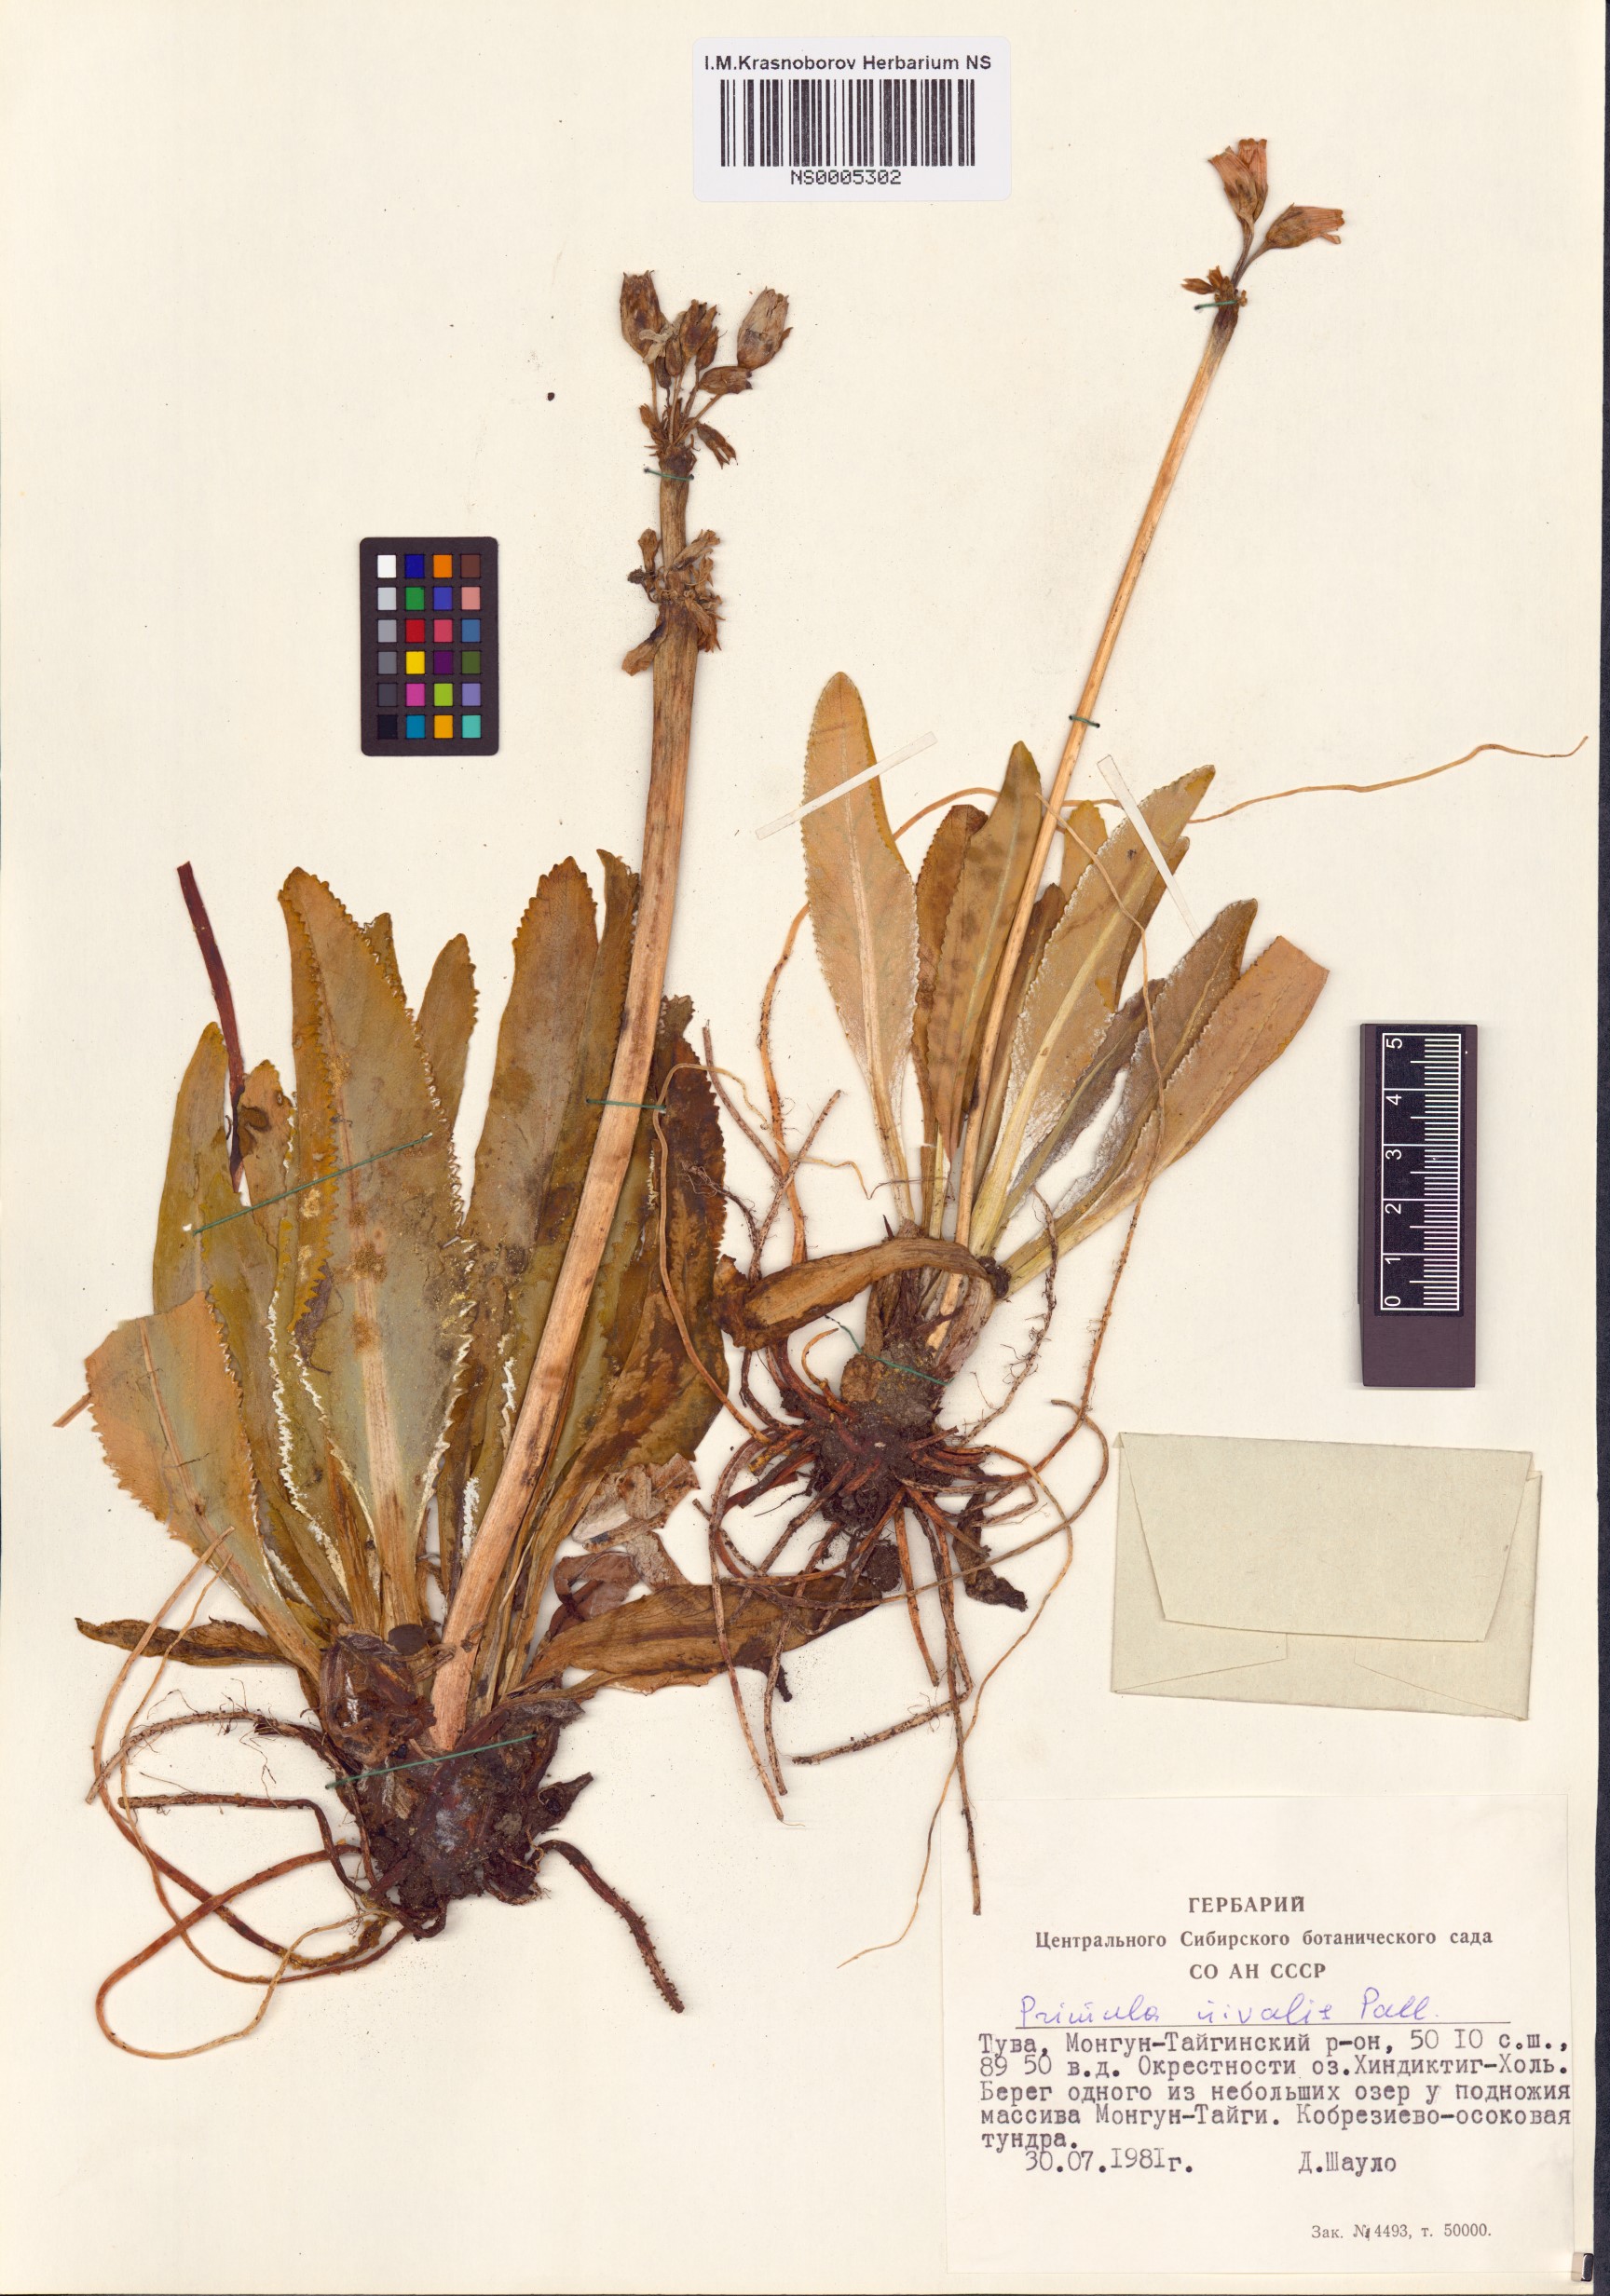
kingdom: Plantae
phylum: Tracheophyta
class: Magnoliopsida
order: Ericales
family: Primulaceae
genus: Primula
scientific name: Primula nivalis
